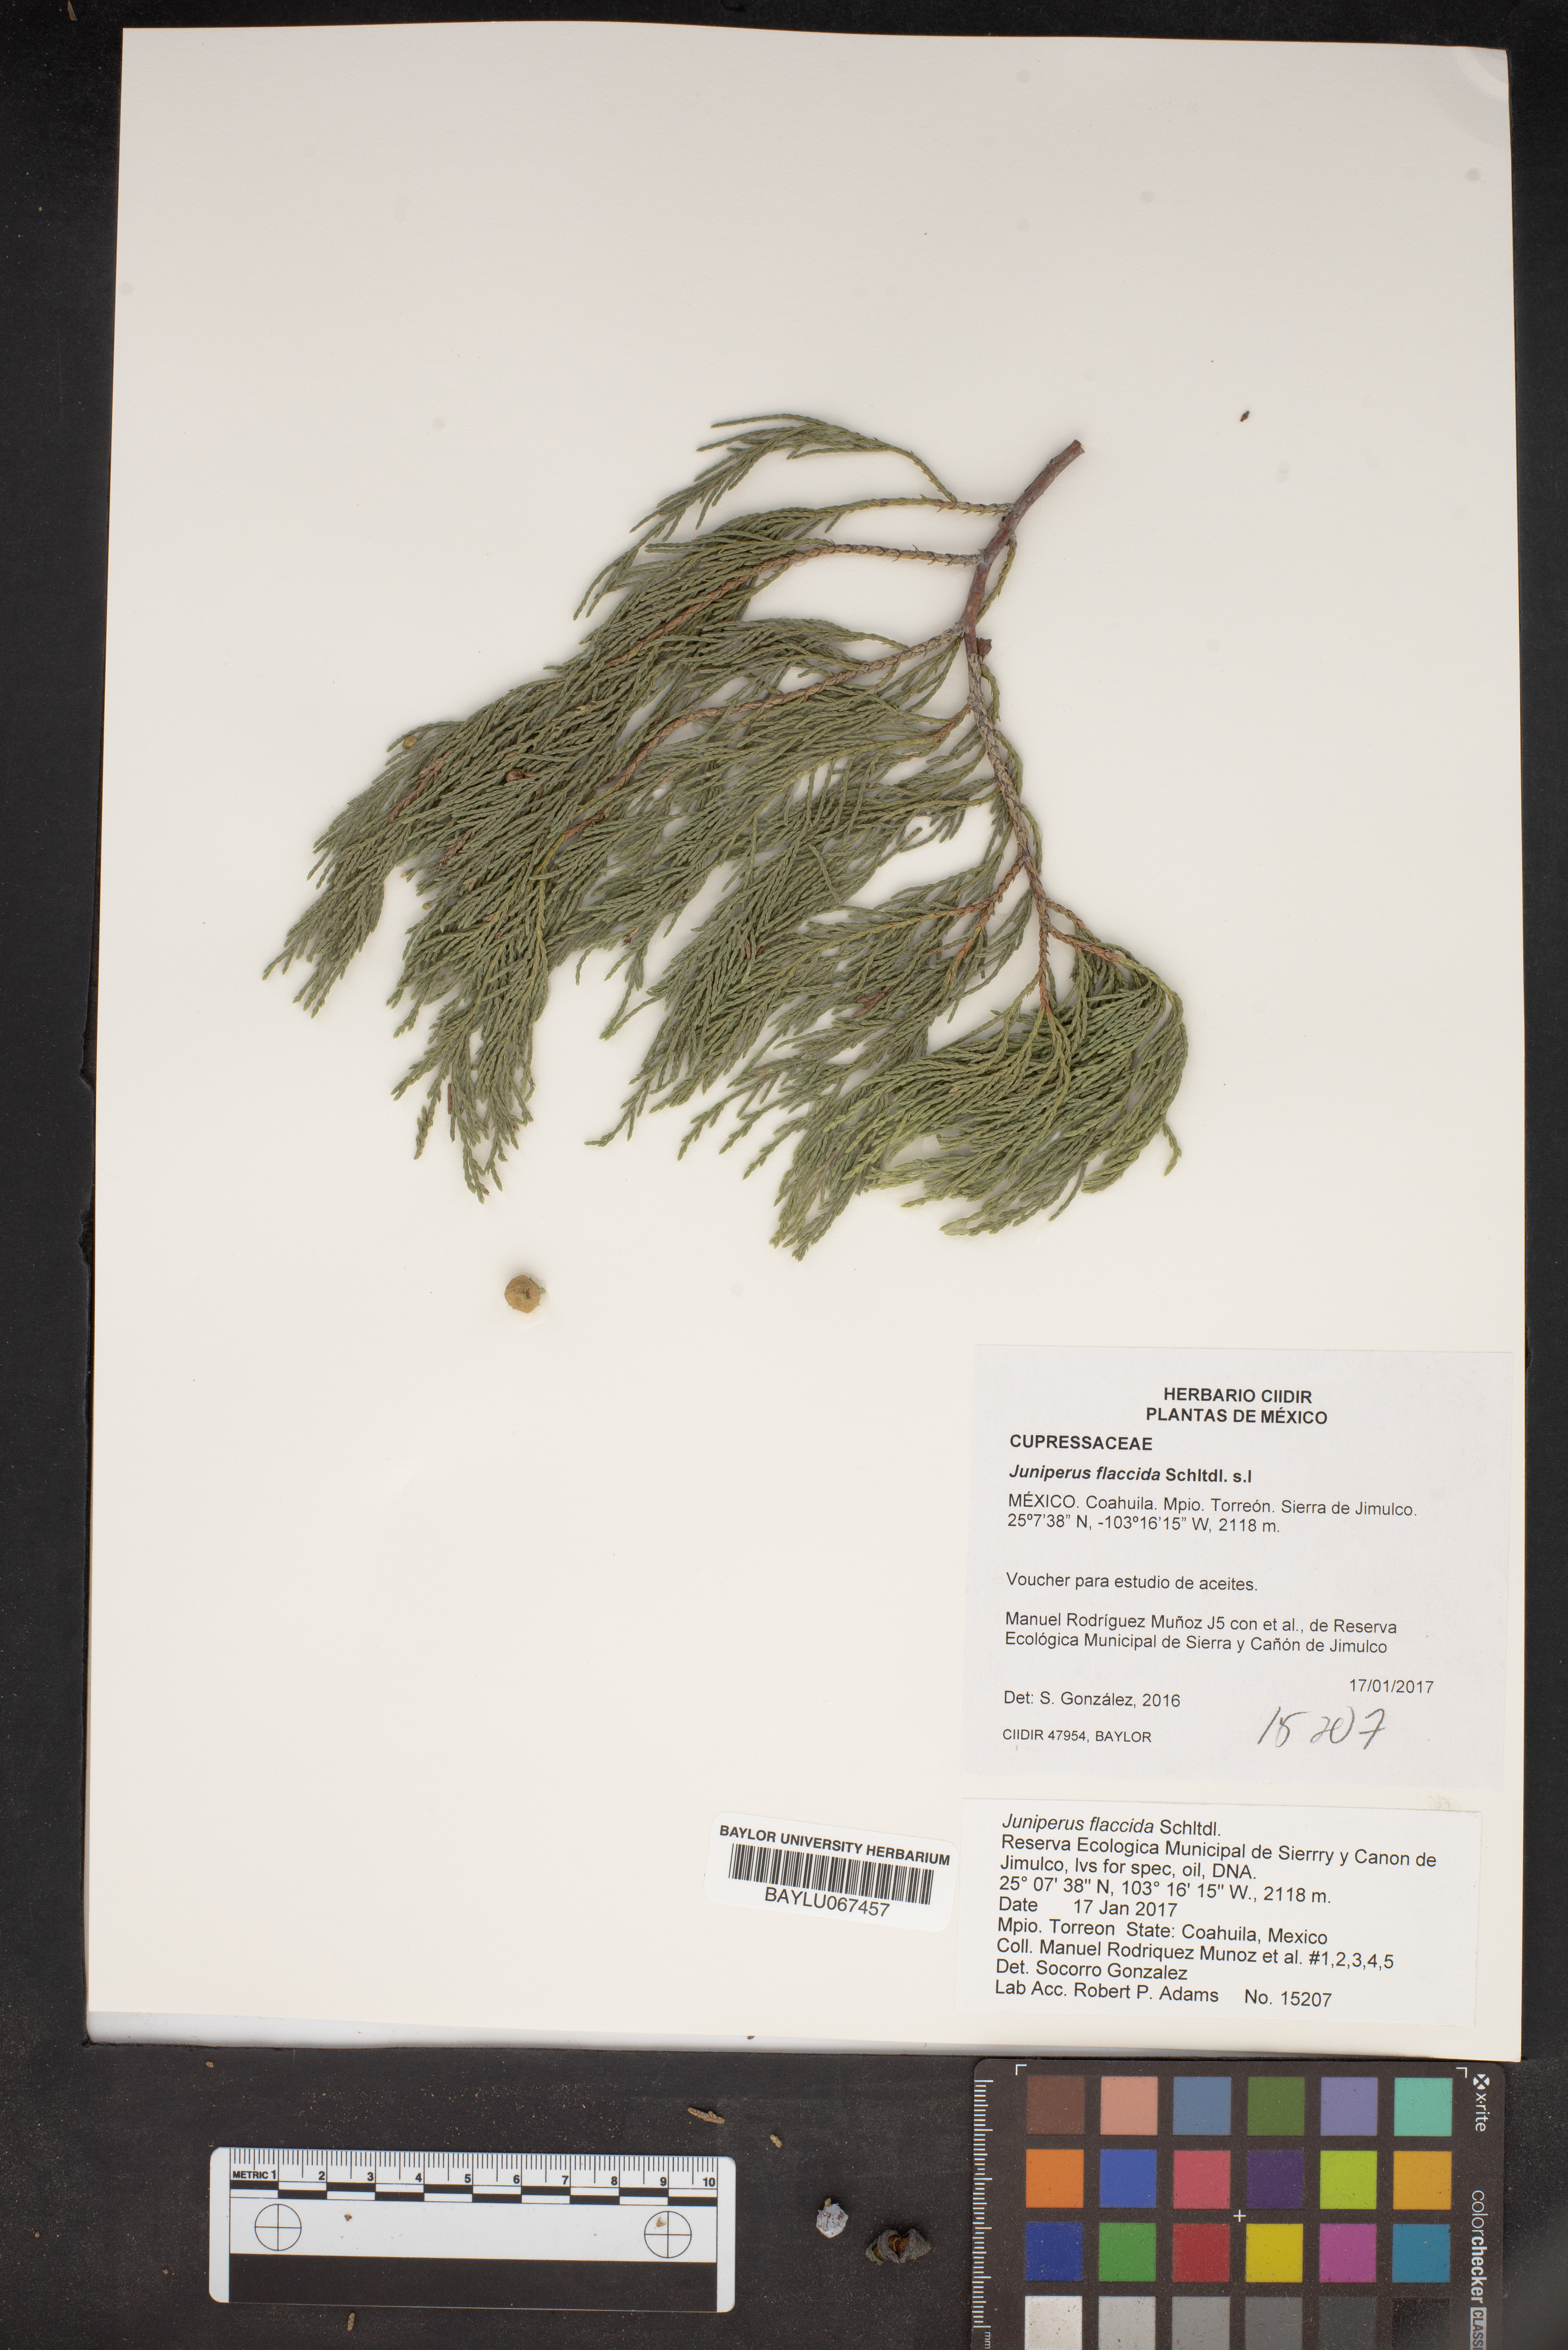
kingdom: Plantae
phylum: Tracheophyta
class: Pinopsida
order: Pinales
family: Cupressaceae
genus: Juniperus
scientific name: Juniperus flaccida
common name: Drooping juniper
